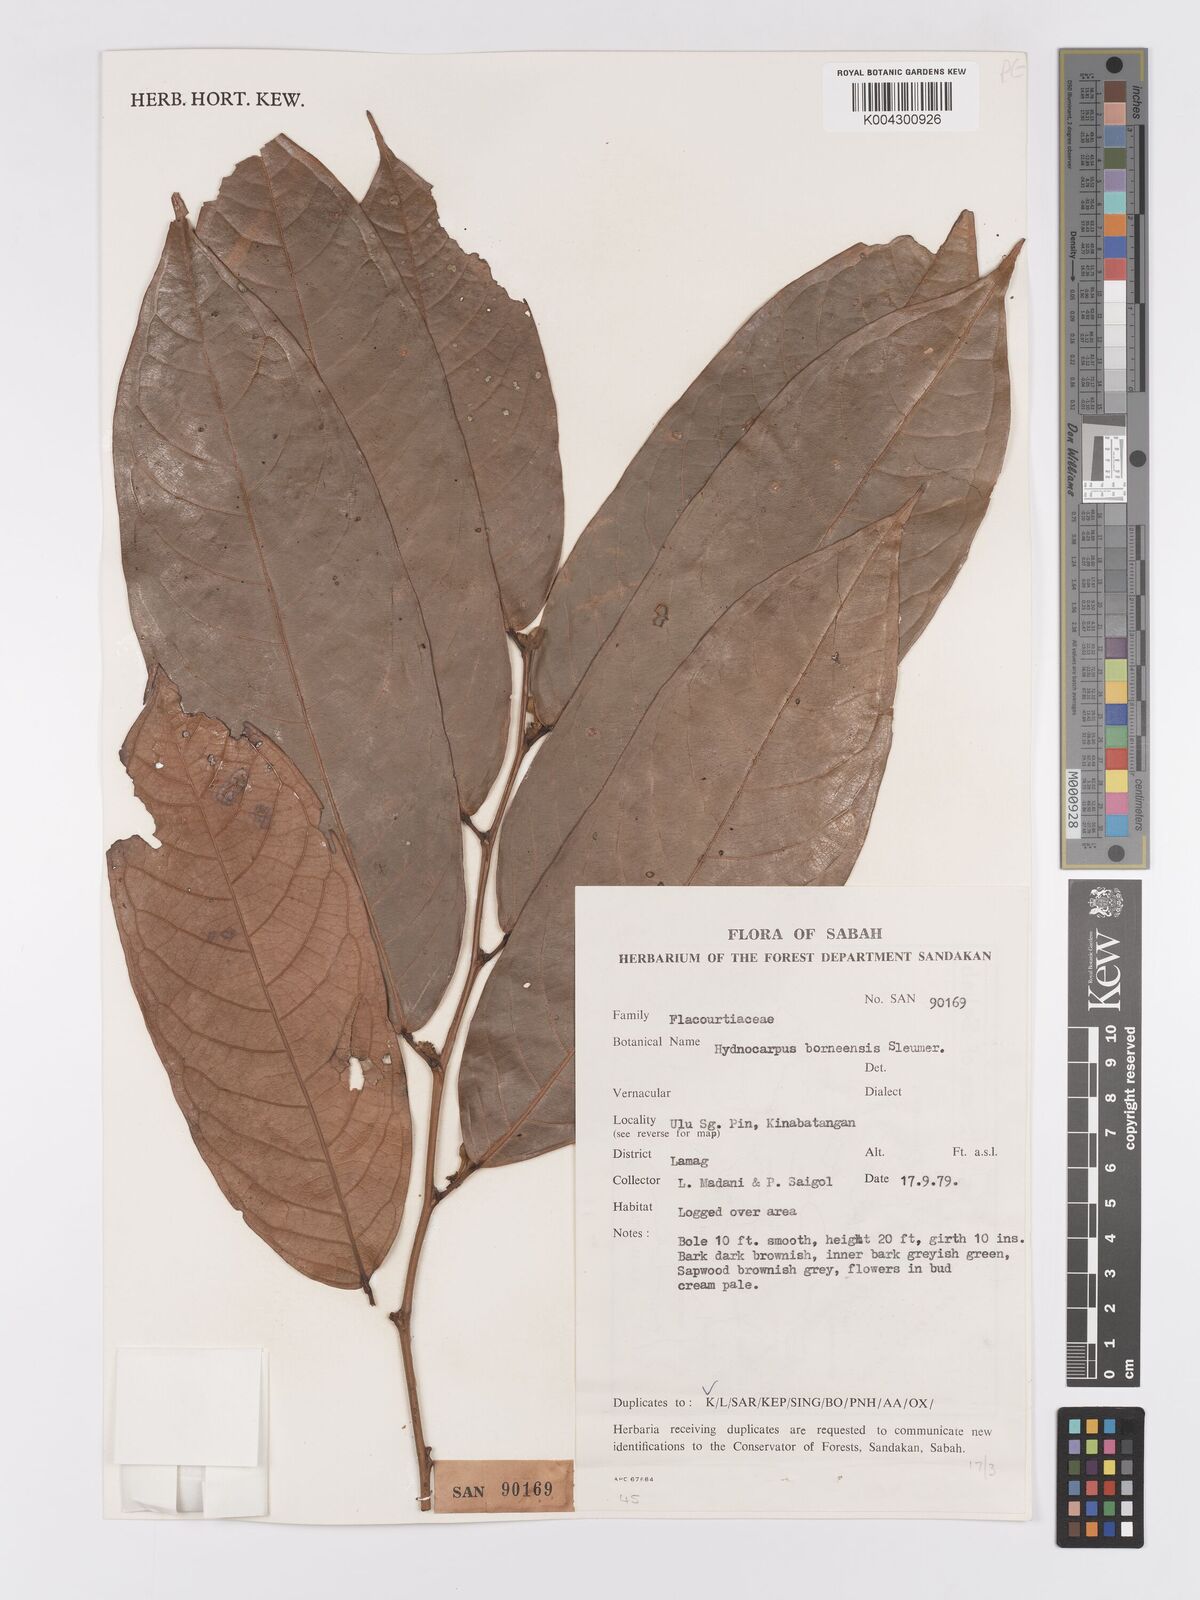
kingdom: Plantae
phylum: Tracheophyta
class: Magnoliopsida
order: Malpighiales
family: Achariaceae
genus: Hydnocarpus
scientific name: Hydnocarpus borneensis
